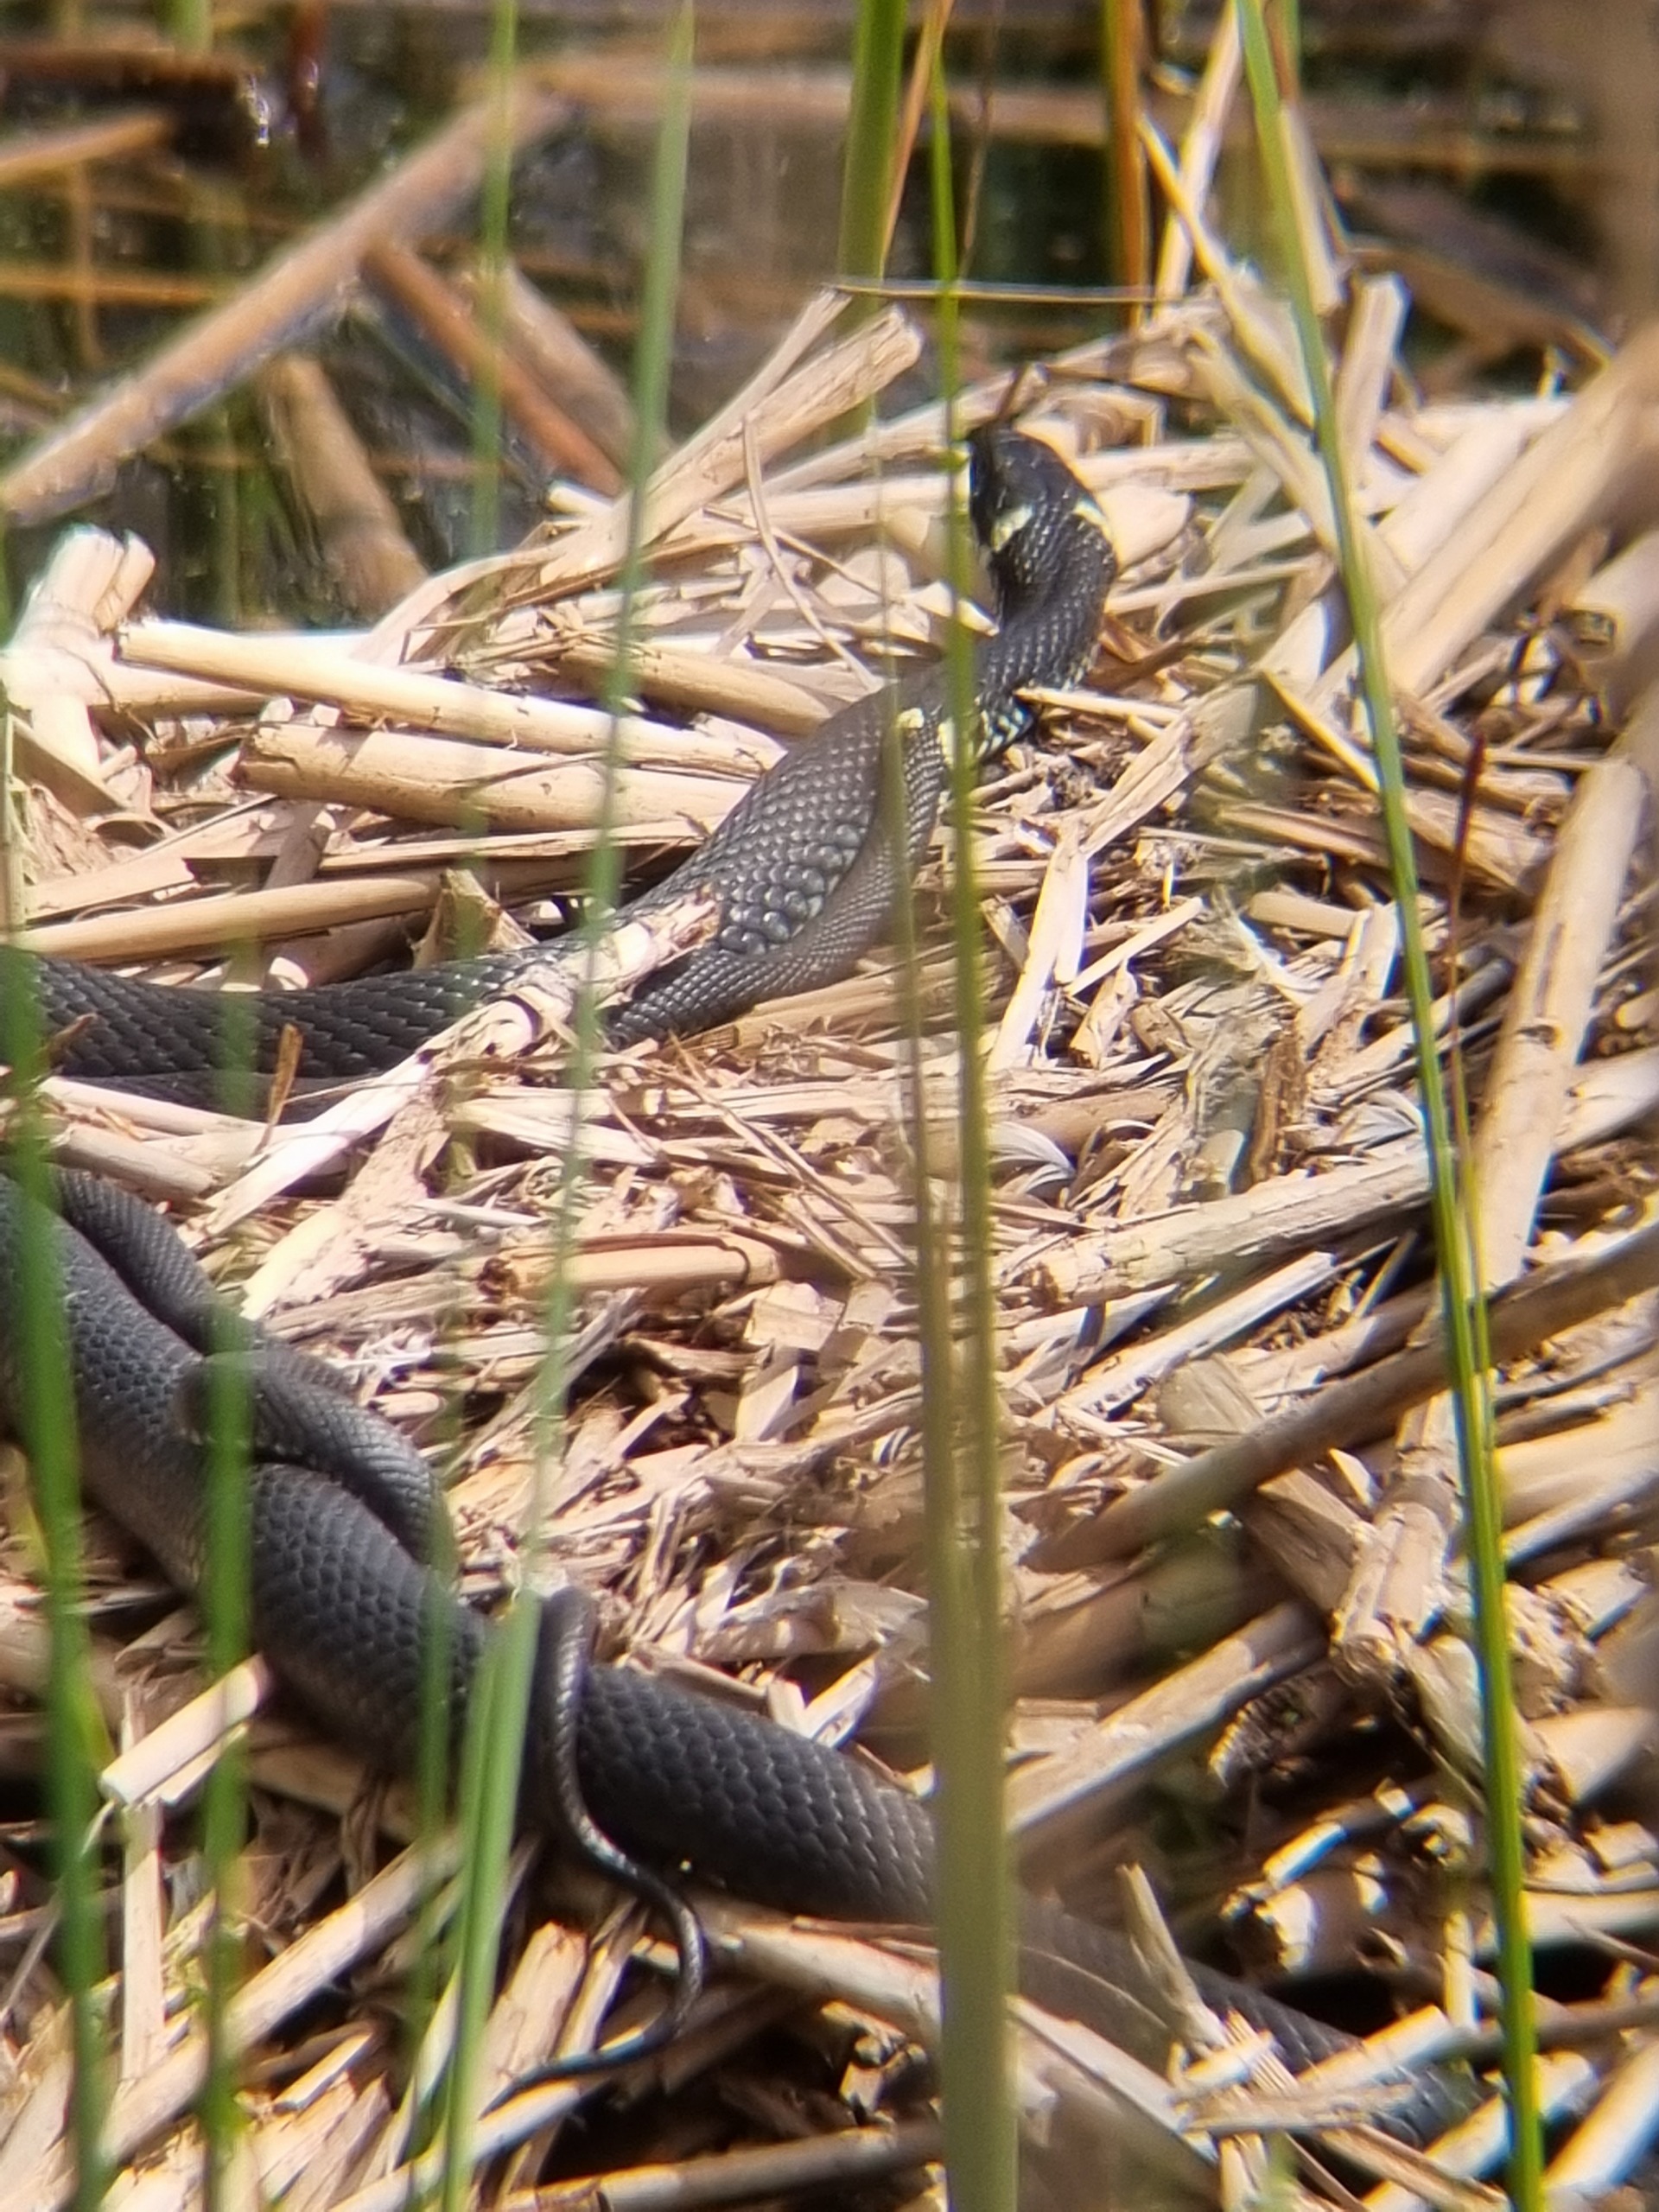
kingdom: Animalia
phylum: Chordata
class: Squamata
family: Colubridae
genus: Natrix
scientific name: Natrix natrix
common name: Snog
